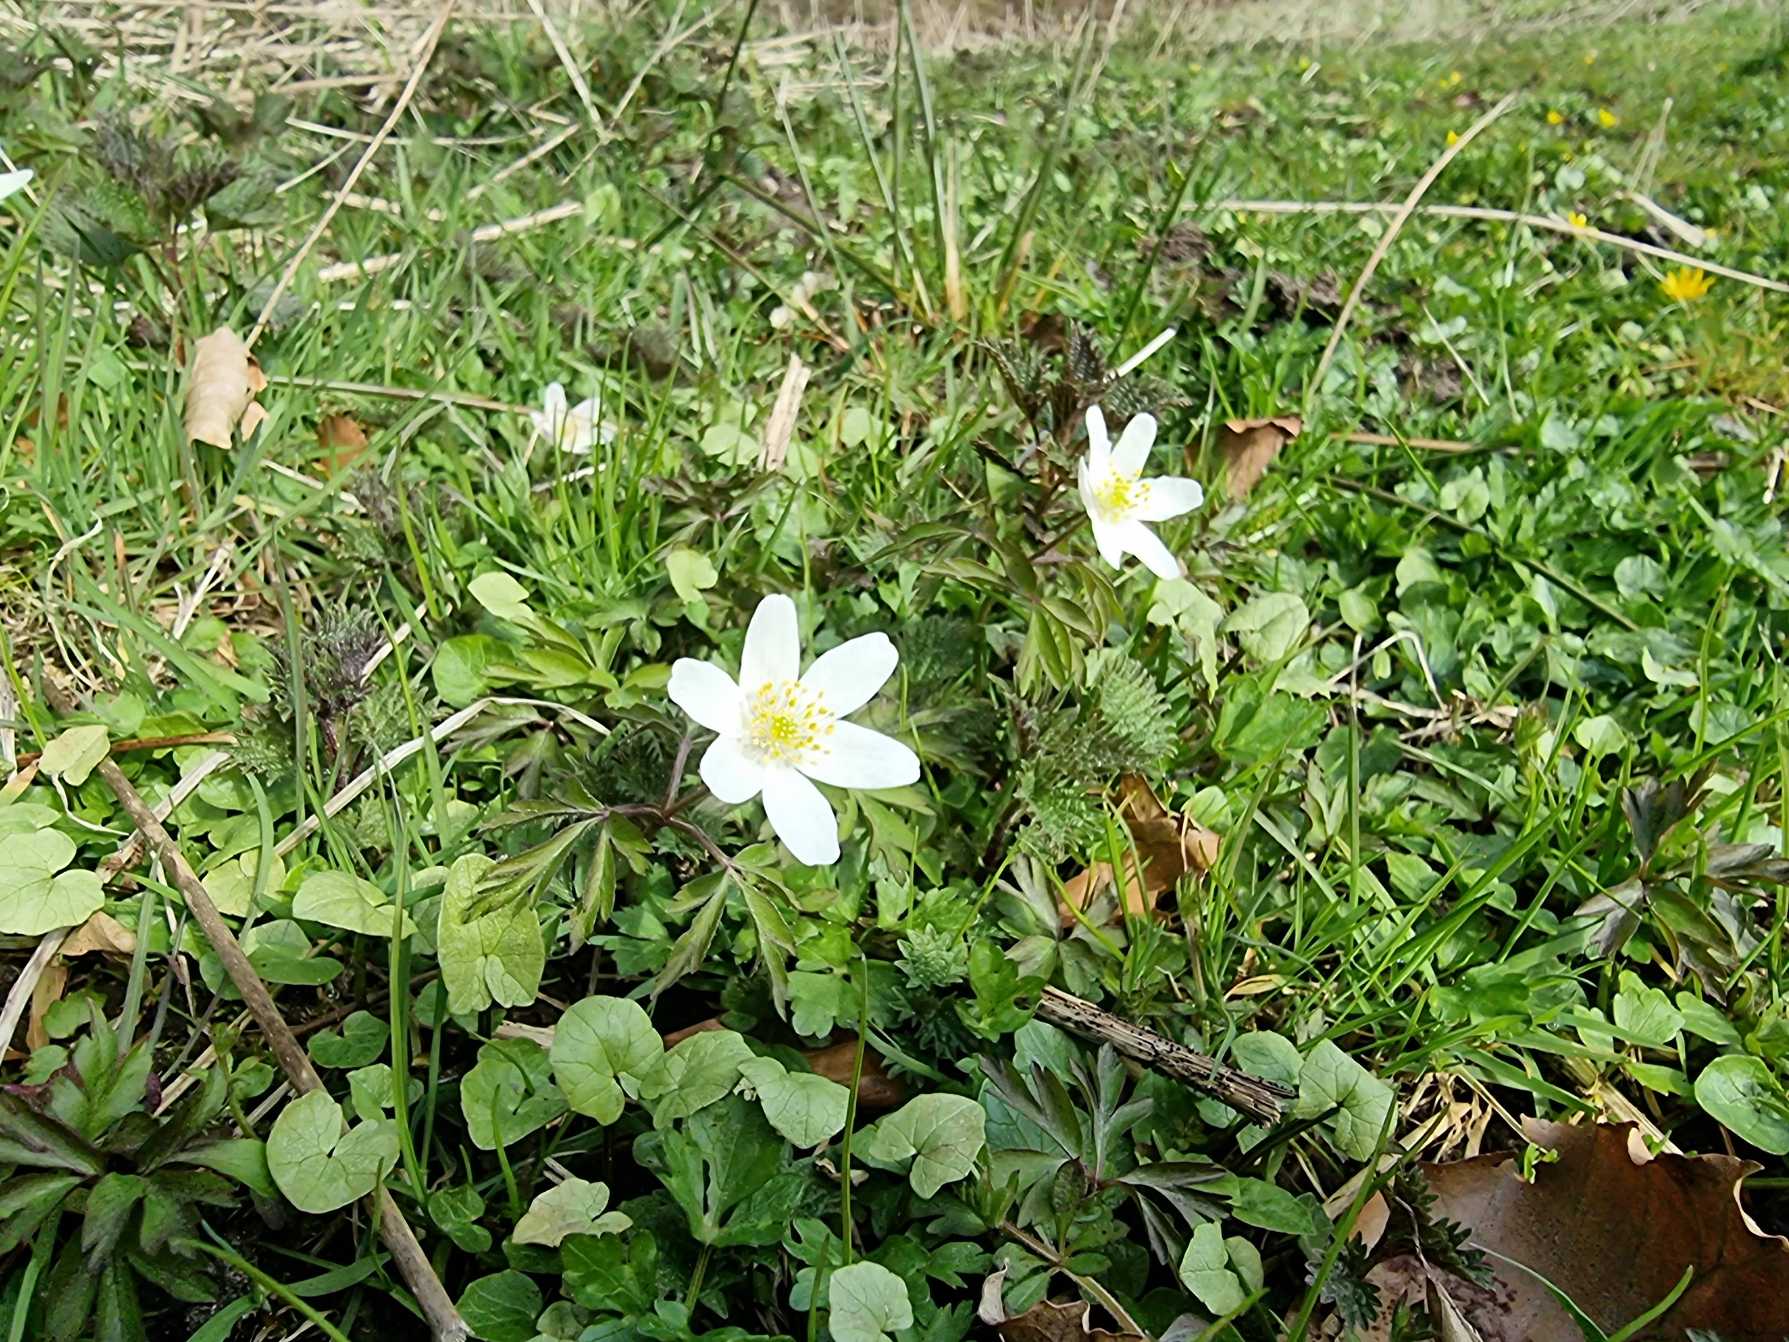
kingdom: Plantae
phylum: Tracheophyta
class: Magnoliopsida
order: Ranunculales
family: Ranunculaceae
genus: Anemone
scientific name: Anemone nemorosa
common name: Hvid anemone
